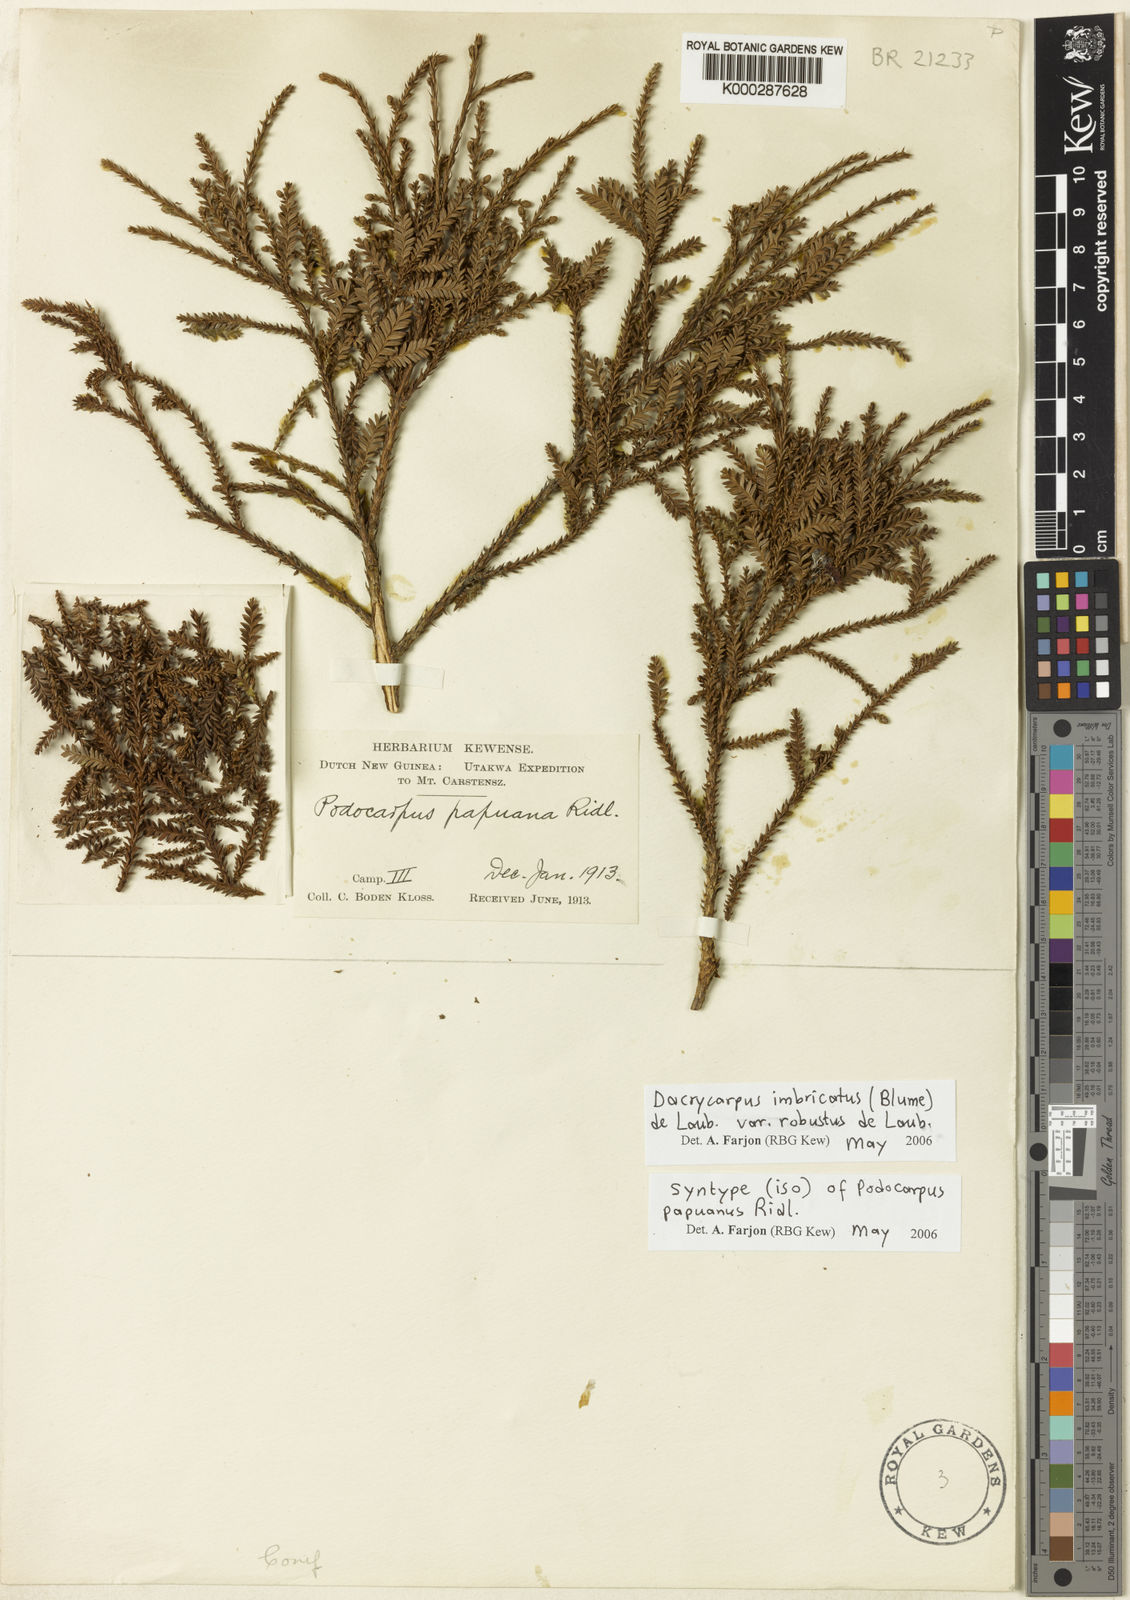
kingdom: Plantae
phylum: Tracheophyta
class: Pinopsida
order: Pinales
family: Podocarpaceae
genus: Dacrycarpus
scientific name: Dacrycarpus imbricatus
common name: Pine
